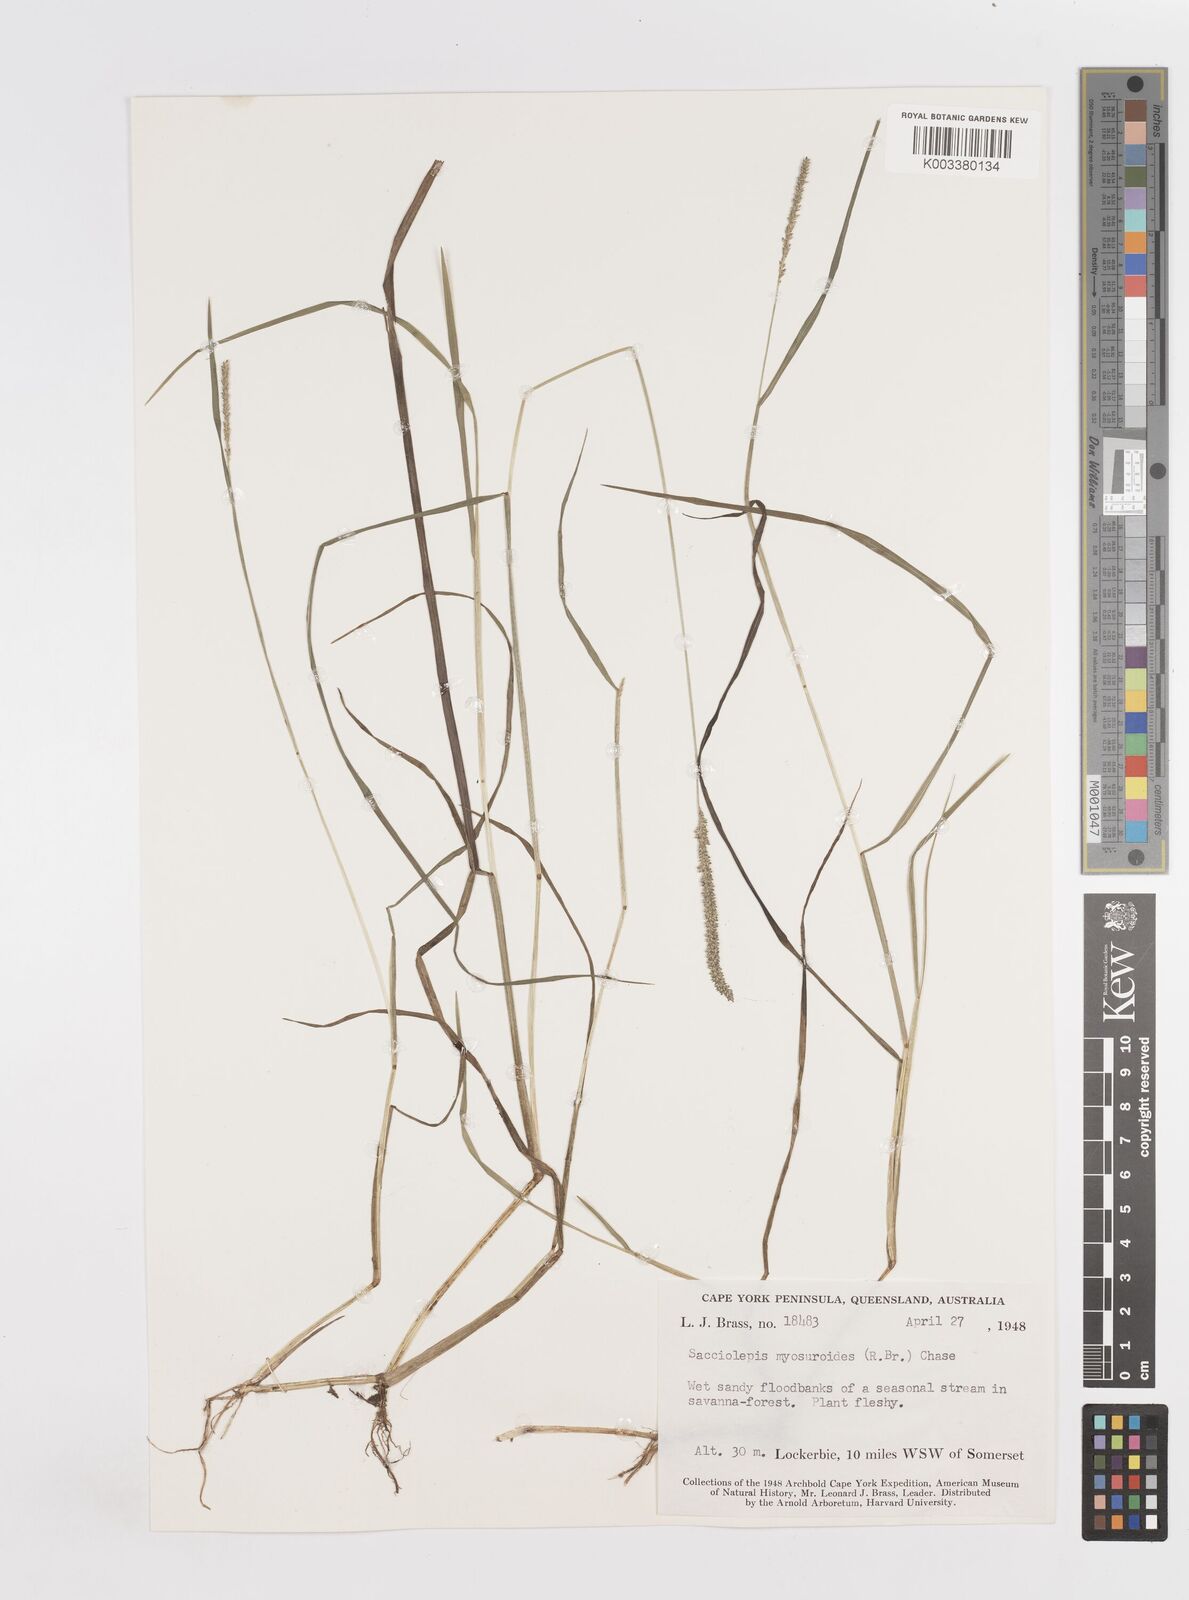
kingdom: Plantae
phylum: Tracheophyta
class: Liliopsida
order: Poales
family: Poaceae
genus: Sacciolepis
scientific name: Sacciolepis myosuroides
